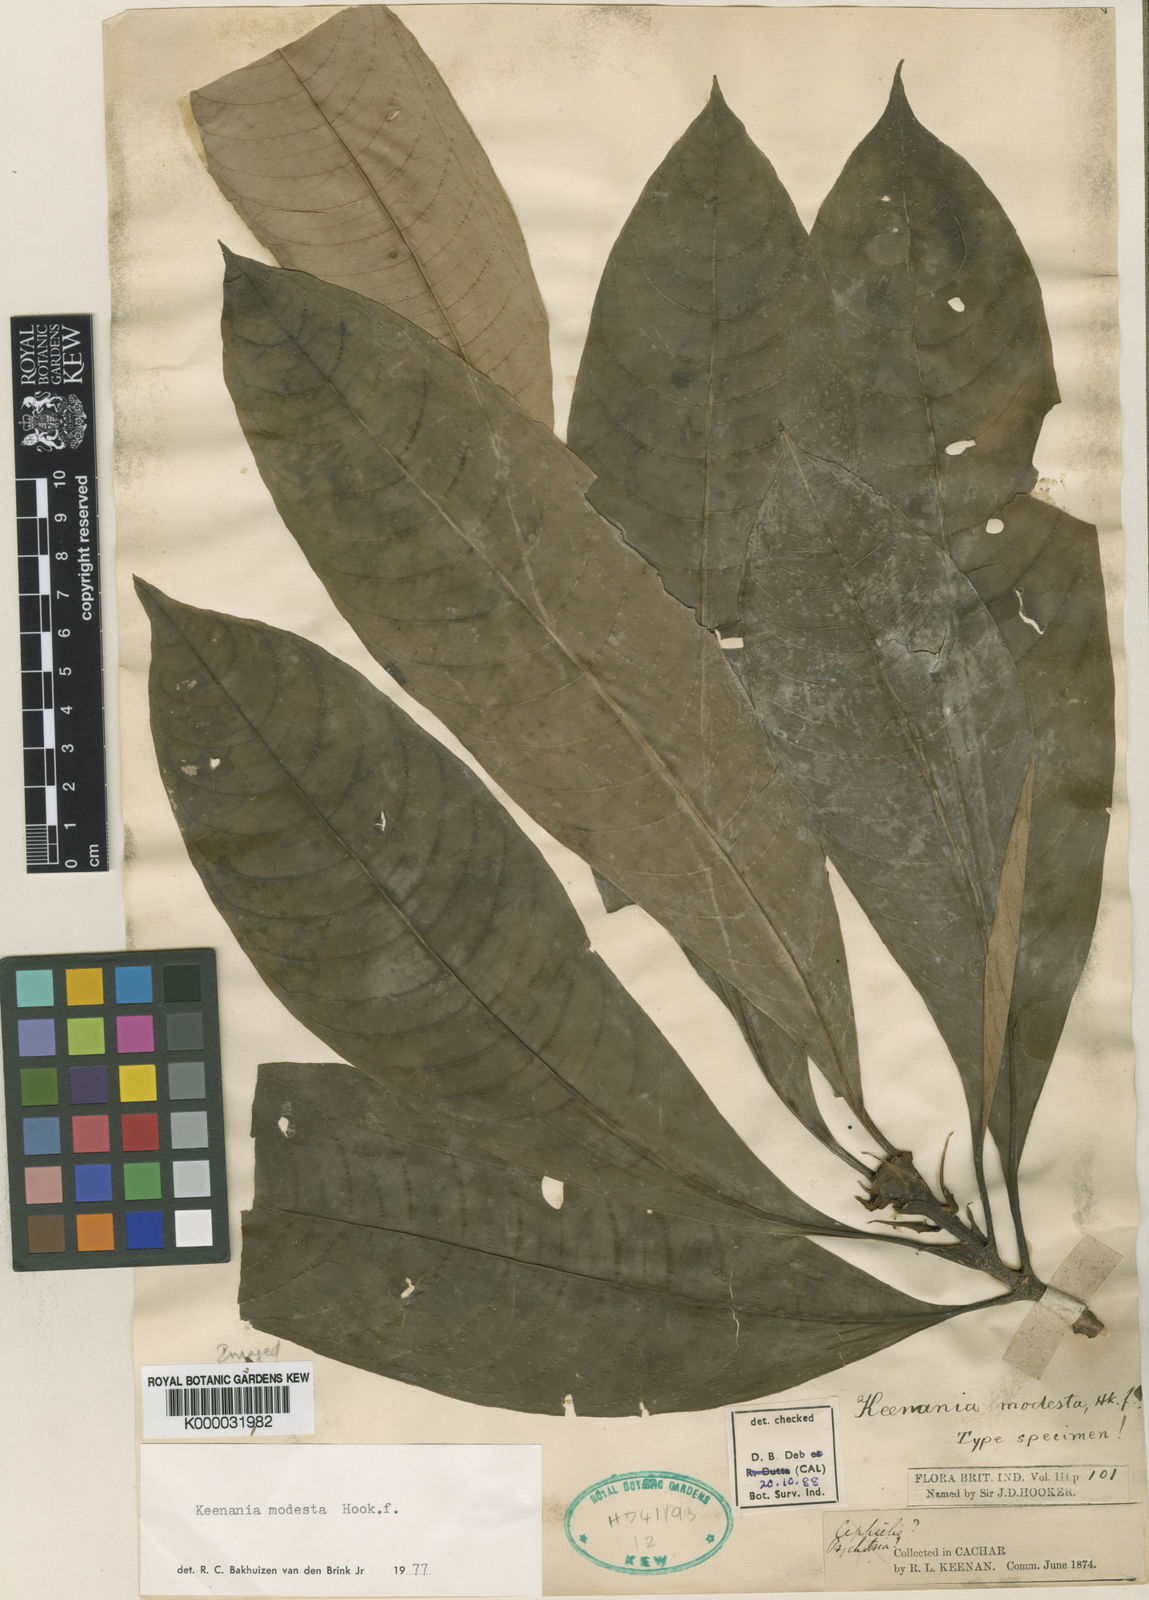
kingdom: Plantae
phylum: Tracheophyta
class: Magnoliopsida
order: Gentianales
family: Rubiaceae
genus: Ophiorrhiza
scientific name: Ophiorrhiza modesta
